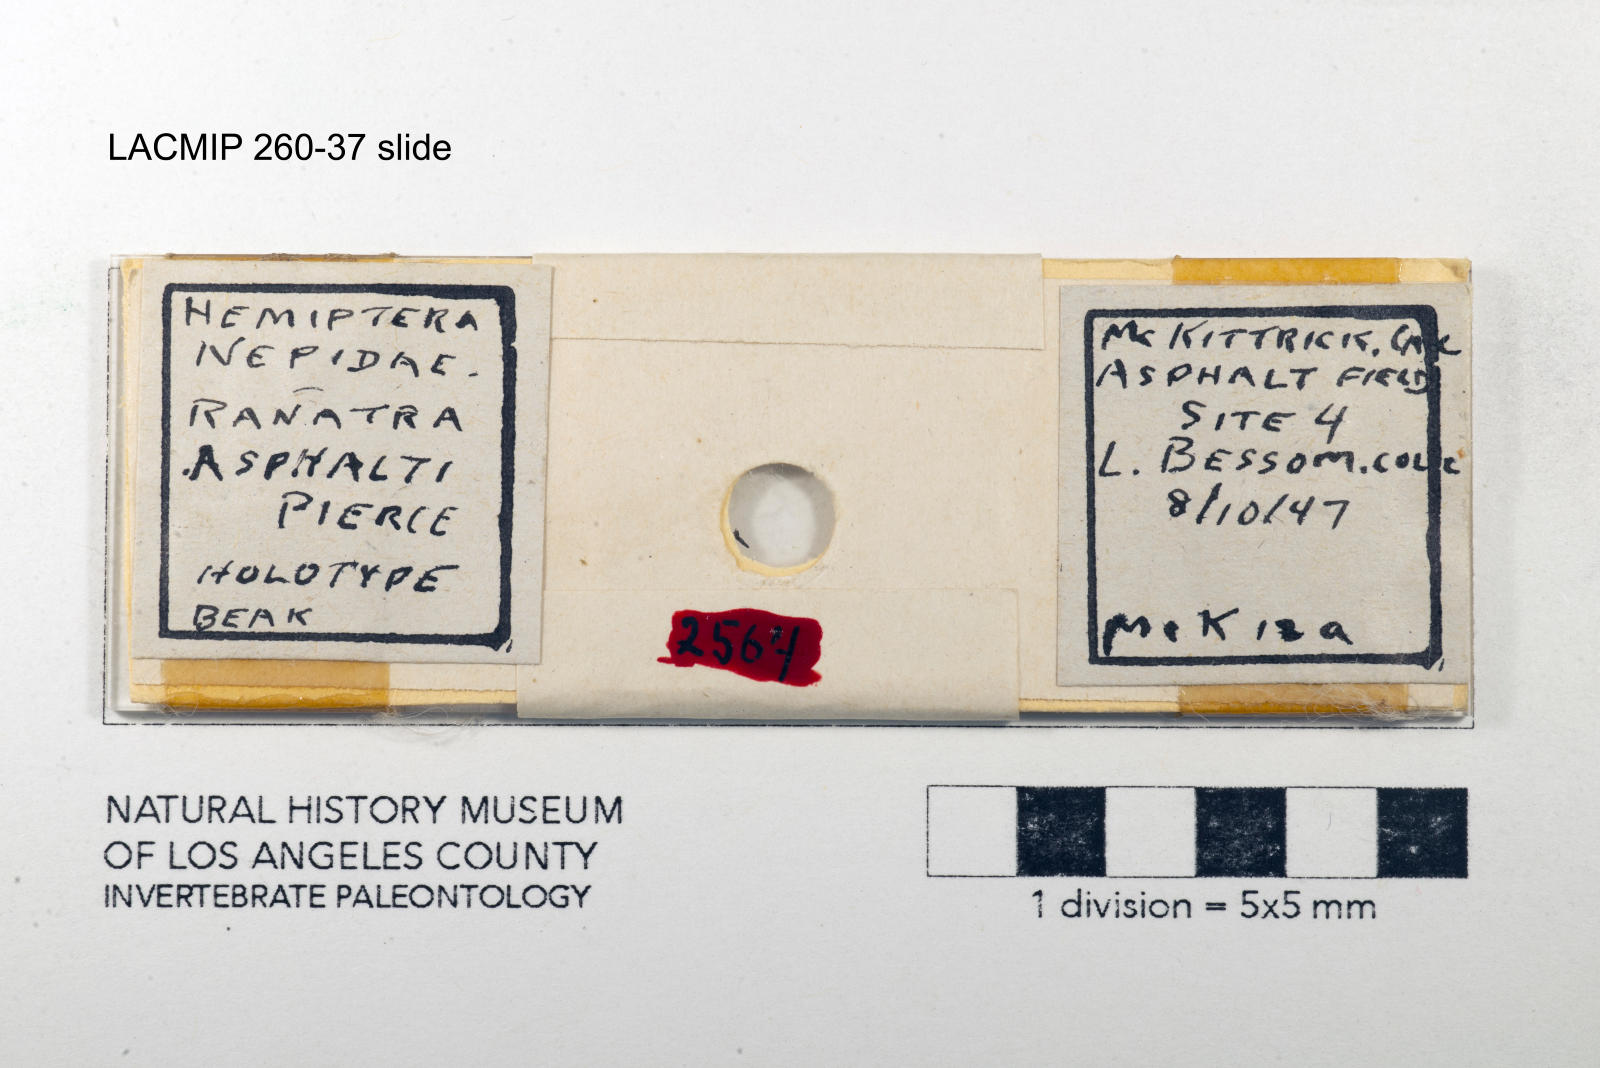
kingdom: Animalia
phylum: Arthropoda
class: Insecta
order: Hemiptera
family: Nepidae
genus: Ranatra
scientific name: Ranatra brevicollis
